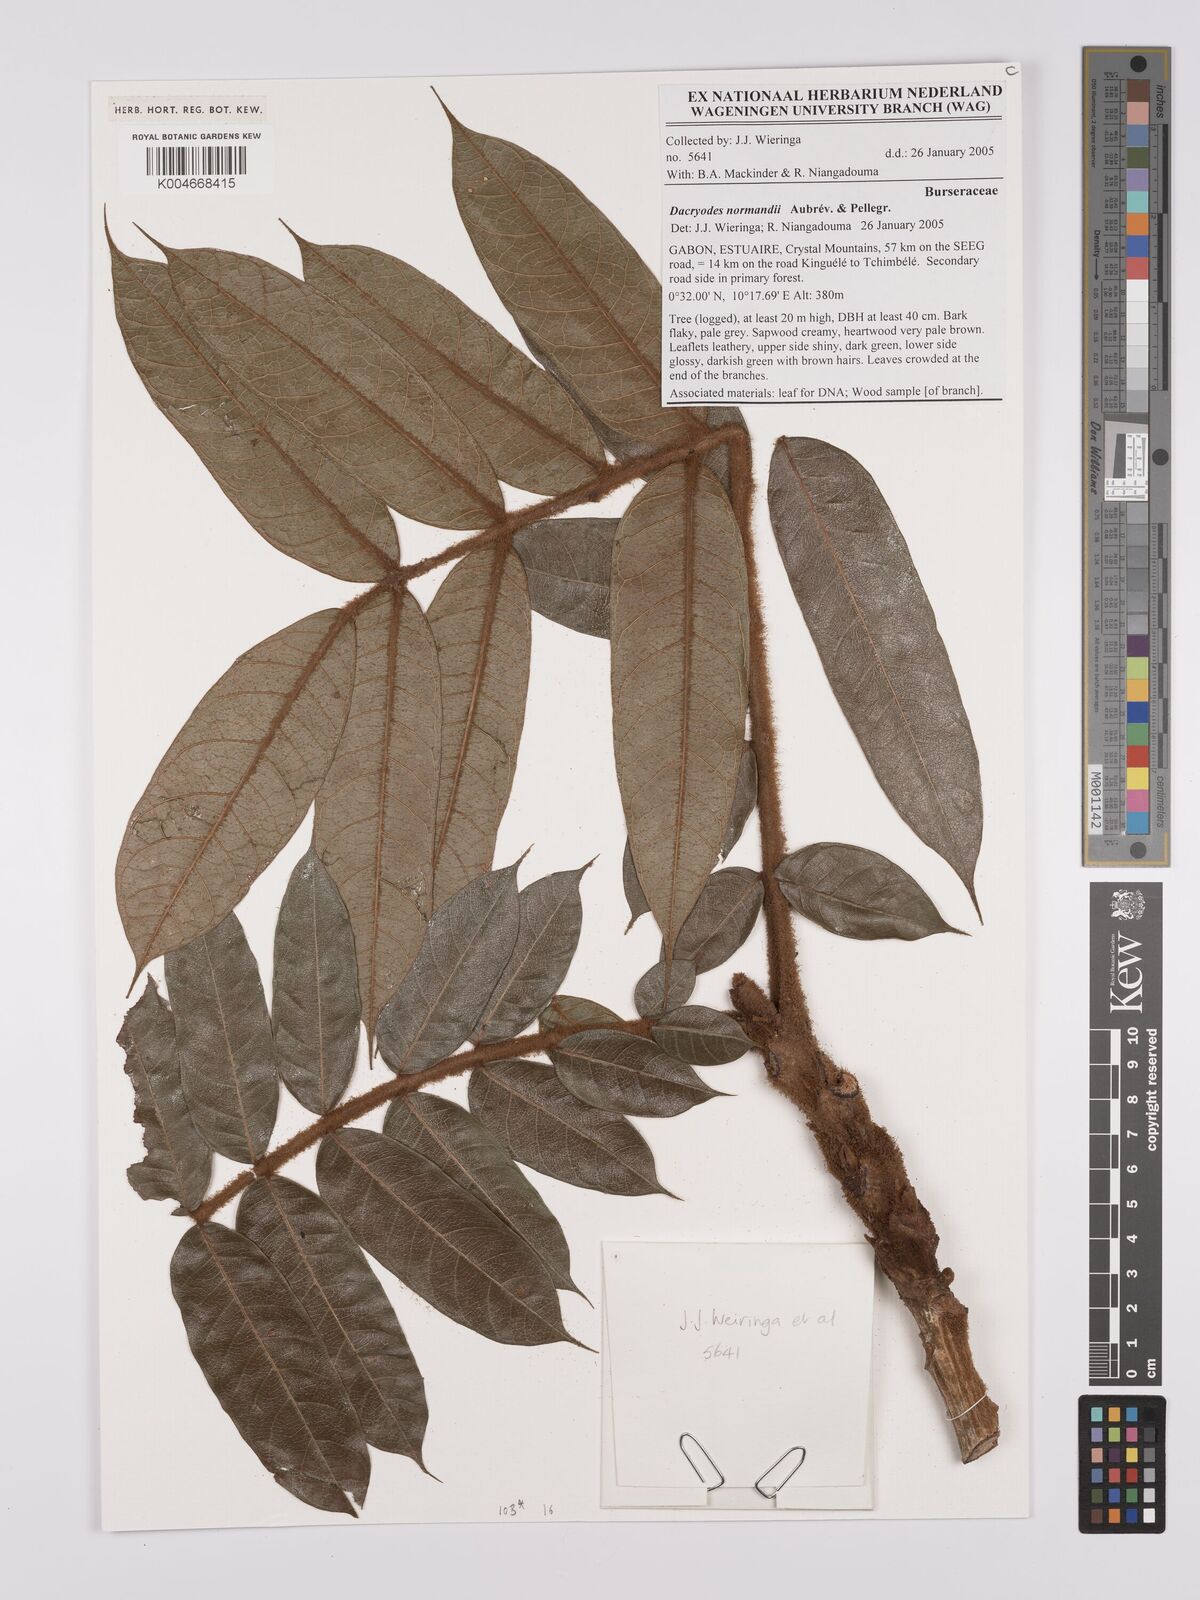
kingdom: Plantae
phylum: Tracheophyta
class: Magnoliopsida
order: Sapindales
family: Burseraceae
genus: Pachylobus
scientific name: Pachylobus normandii
